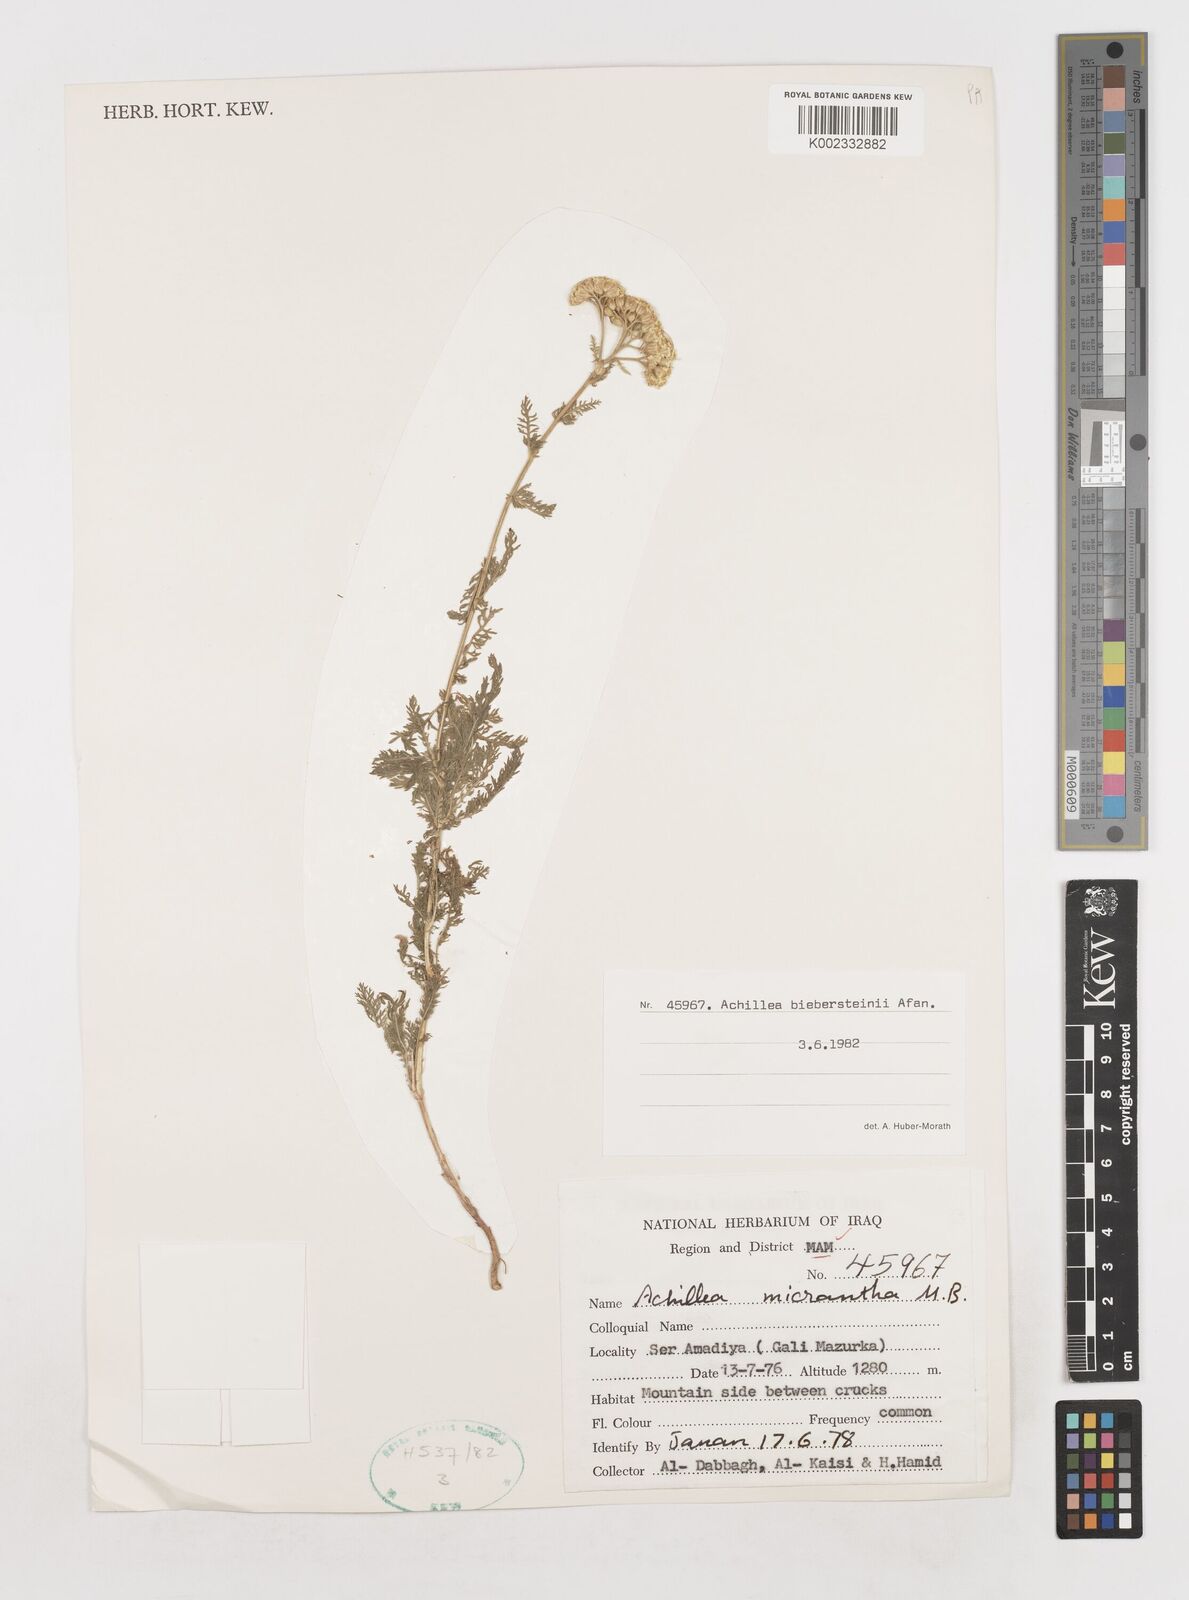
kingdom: Plantae
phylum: Tracheophyta
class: Magnoliopsida
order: Asterales
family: Asteraceae
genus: Achillea
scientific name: Achillea arabica
